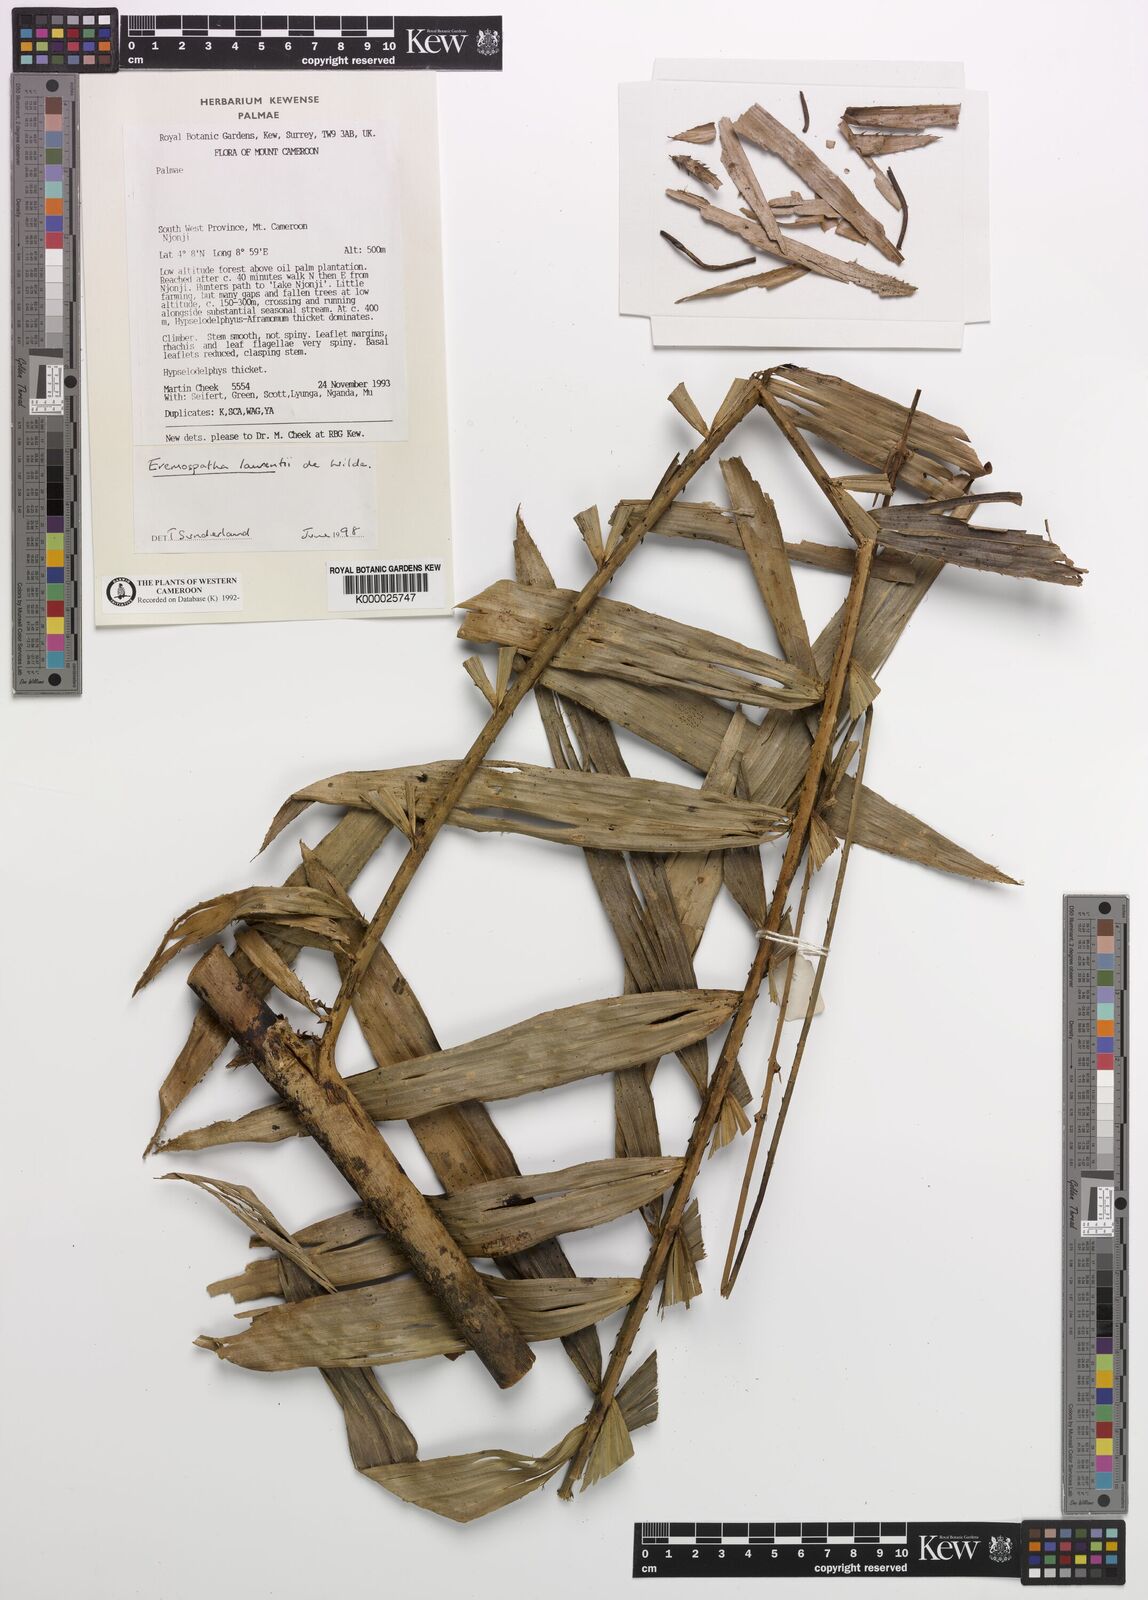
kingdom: Plantae
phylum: Tracheophyta
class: Liliopsida
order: Arecales
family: Arecaceae
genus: Eremospatha
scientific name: Eremospatha laurentii
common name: Rattan palm
